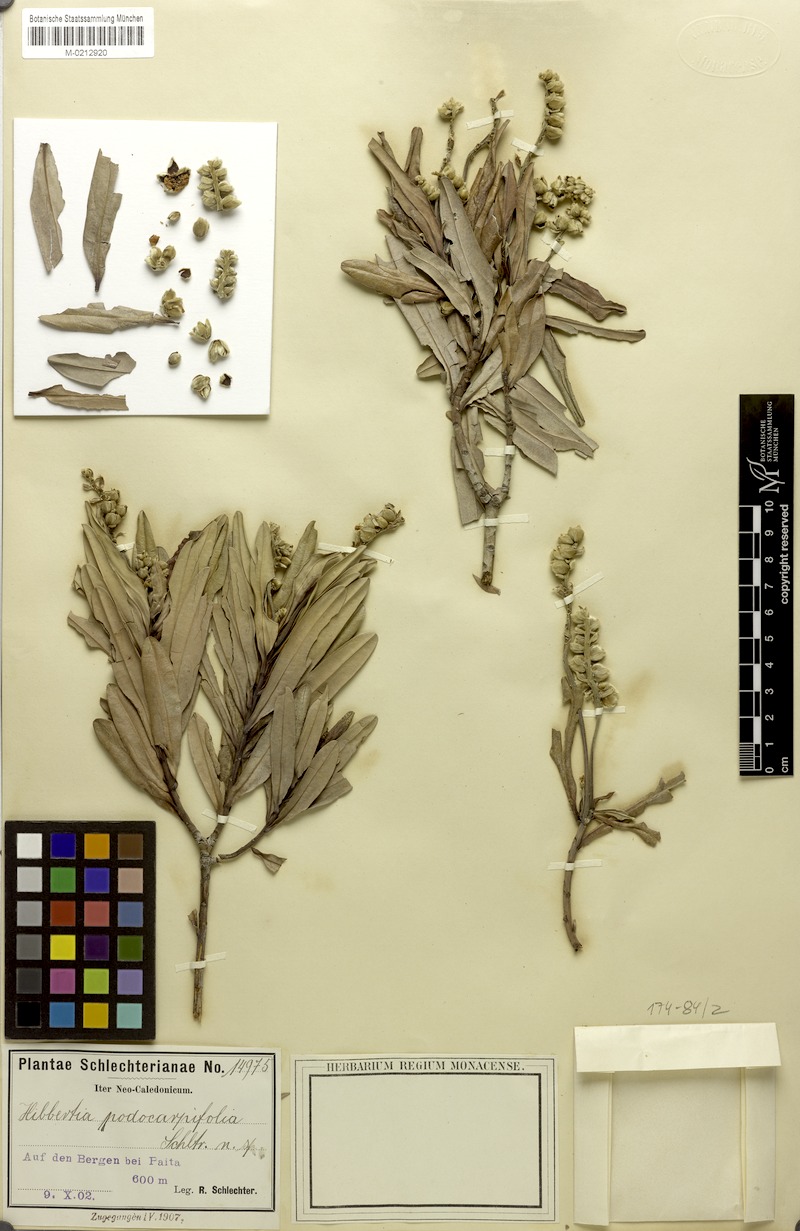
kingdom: Plantae
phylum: Tracheophyta
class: Magnoliopsida
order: Dilleniales
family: Dilleniaceae
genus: Hibbertia
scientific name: Hibbertia podocarpifolia
